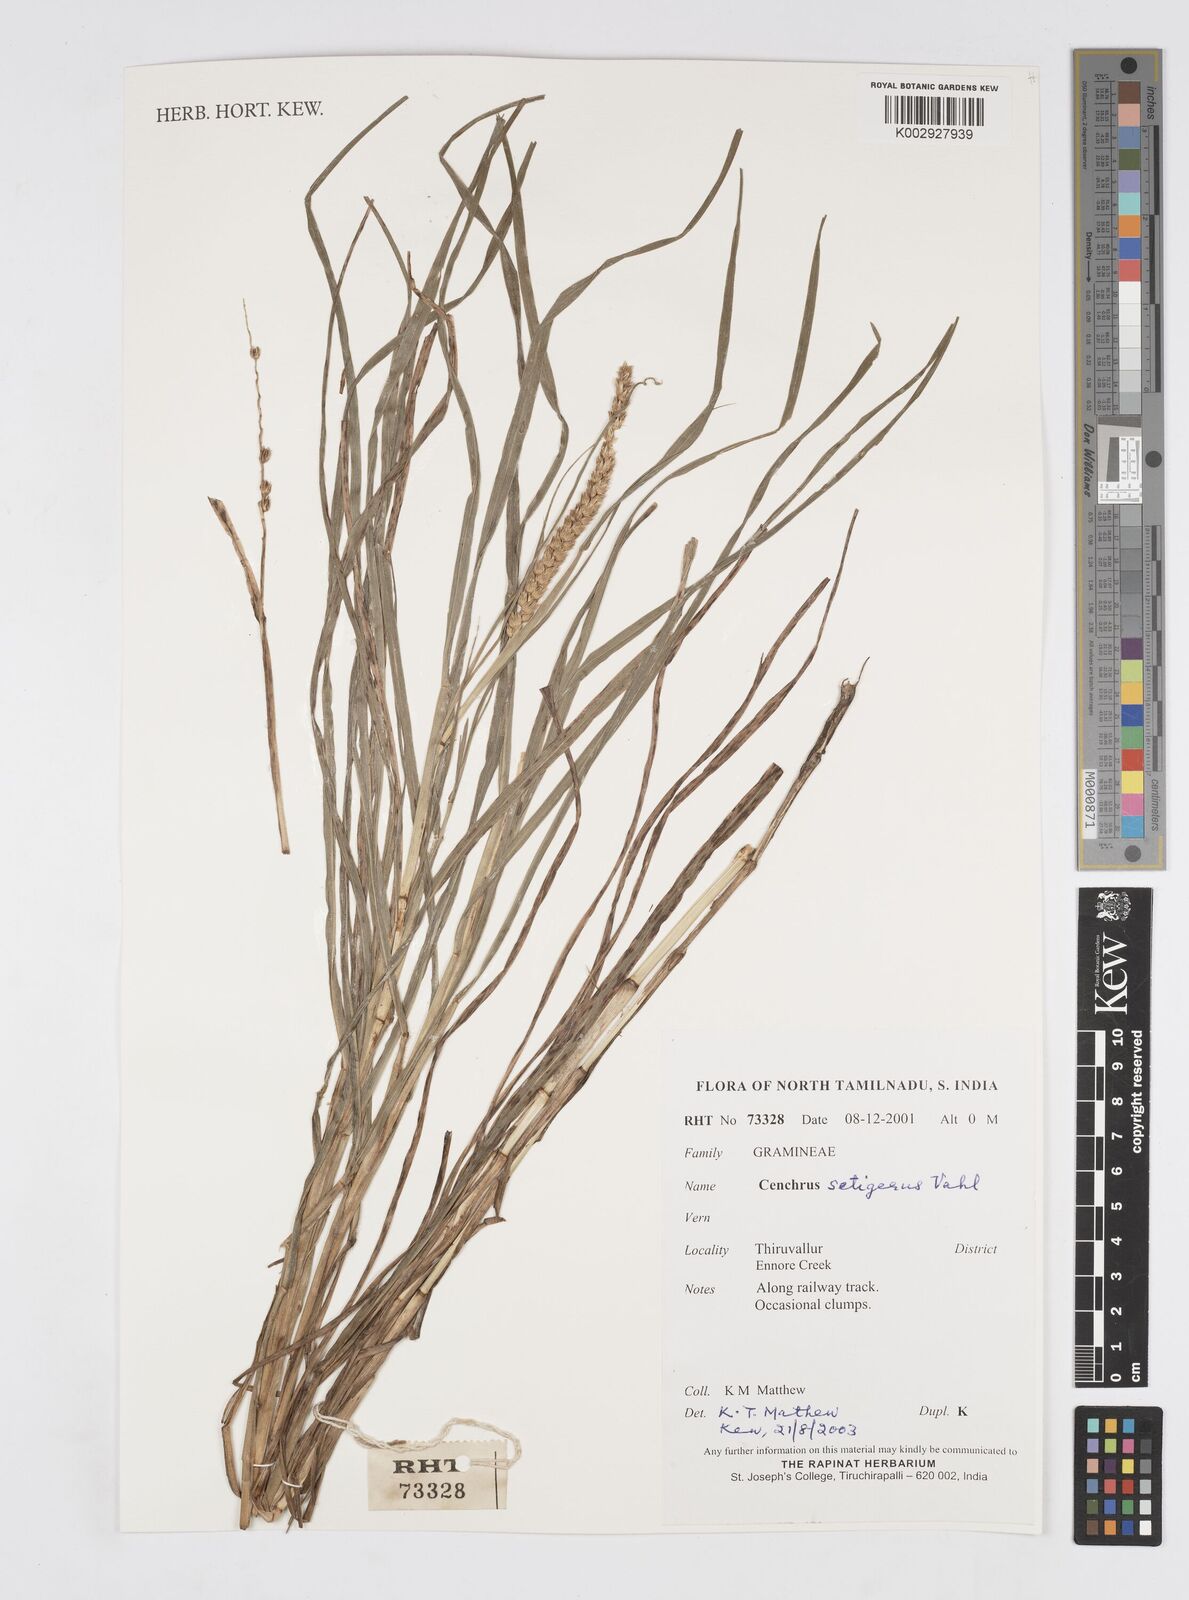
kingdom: Plantae
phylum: Tracheophyta
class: Liliopsida
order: Poales
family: Poaceae
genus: Cenchrus
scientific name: Cenchrus setigerus
